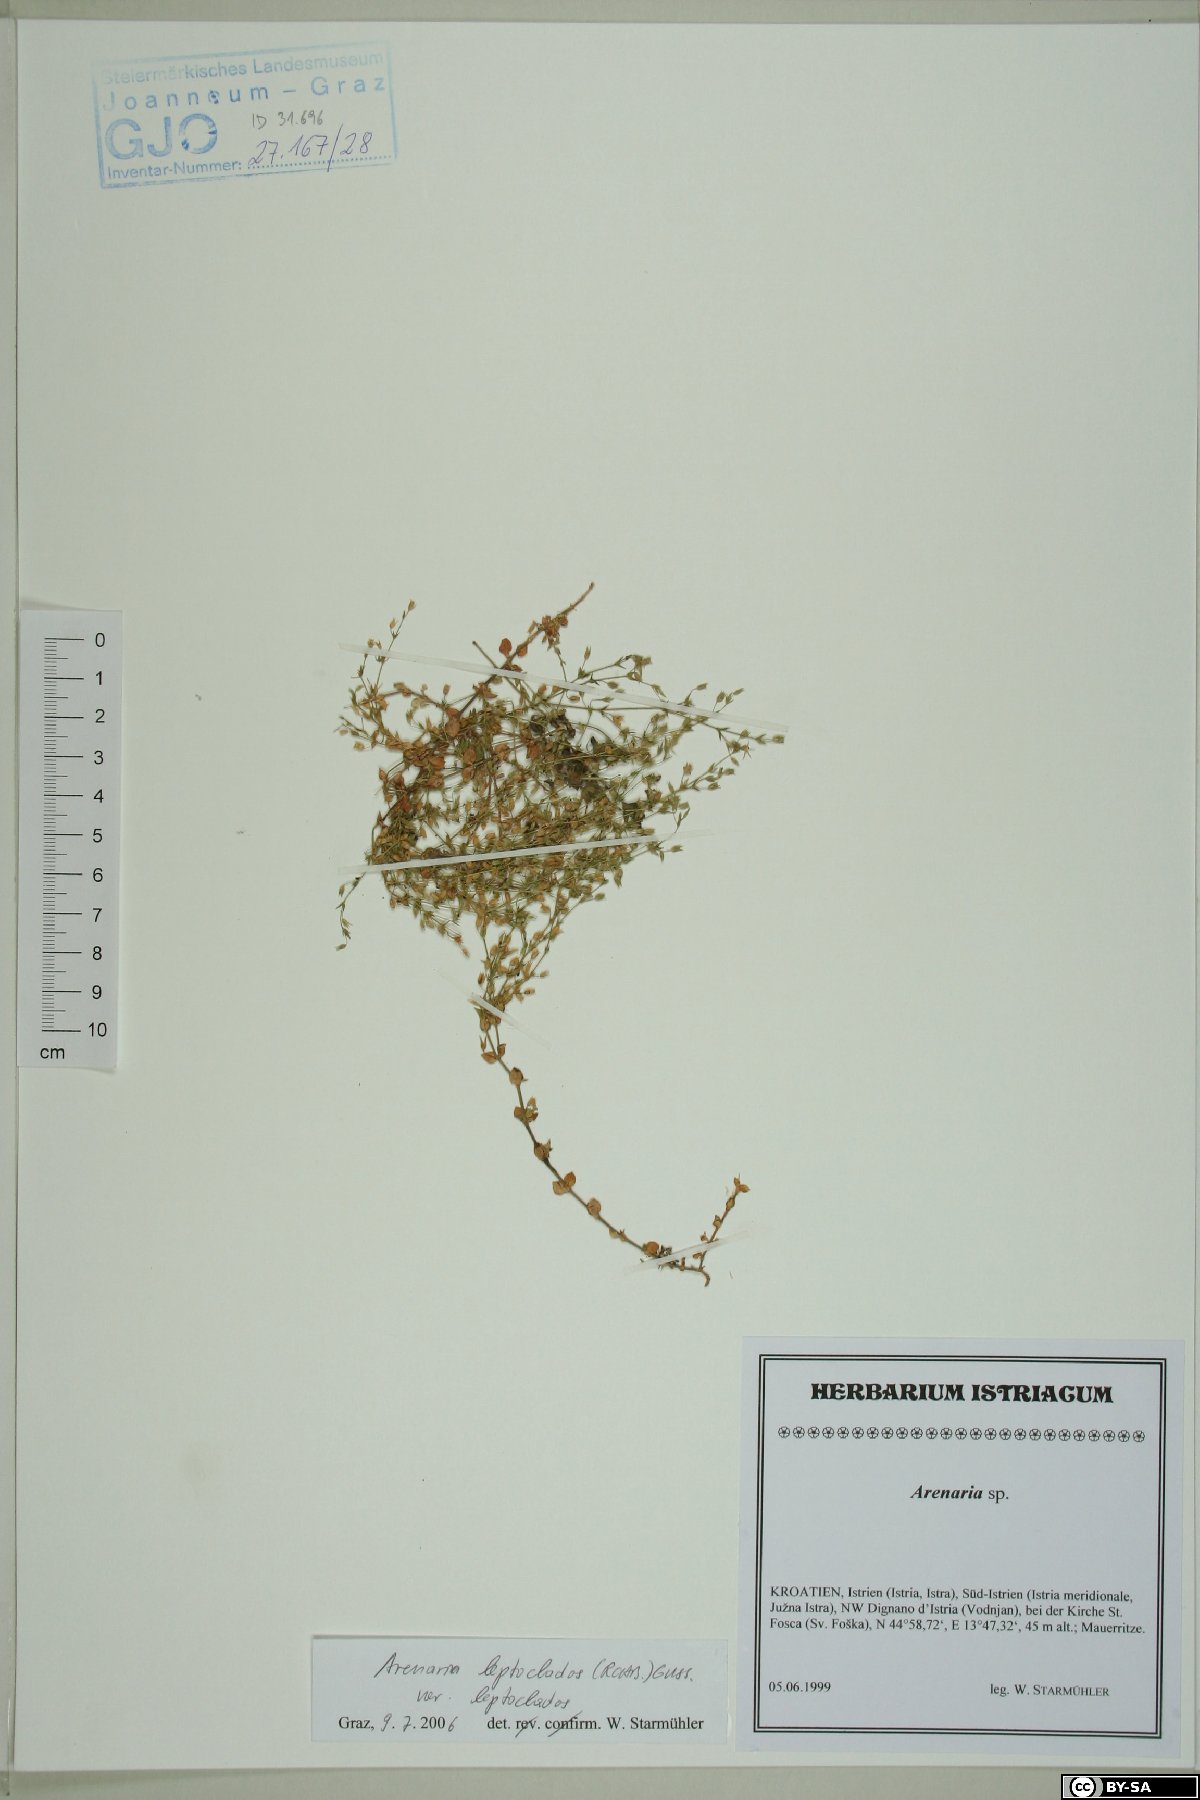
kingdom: Plantae
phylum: Tracheophyta
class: Magnoliopsida
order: Caryophyllales
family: Caryophyllaceae
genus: Arenaria
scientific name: Arenaria leptoclados
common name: Thyme-leaved sandwort
